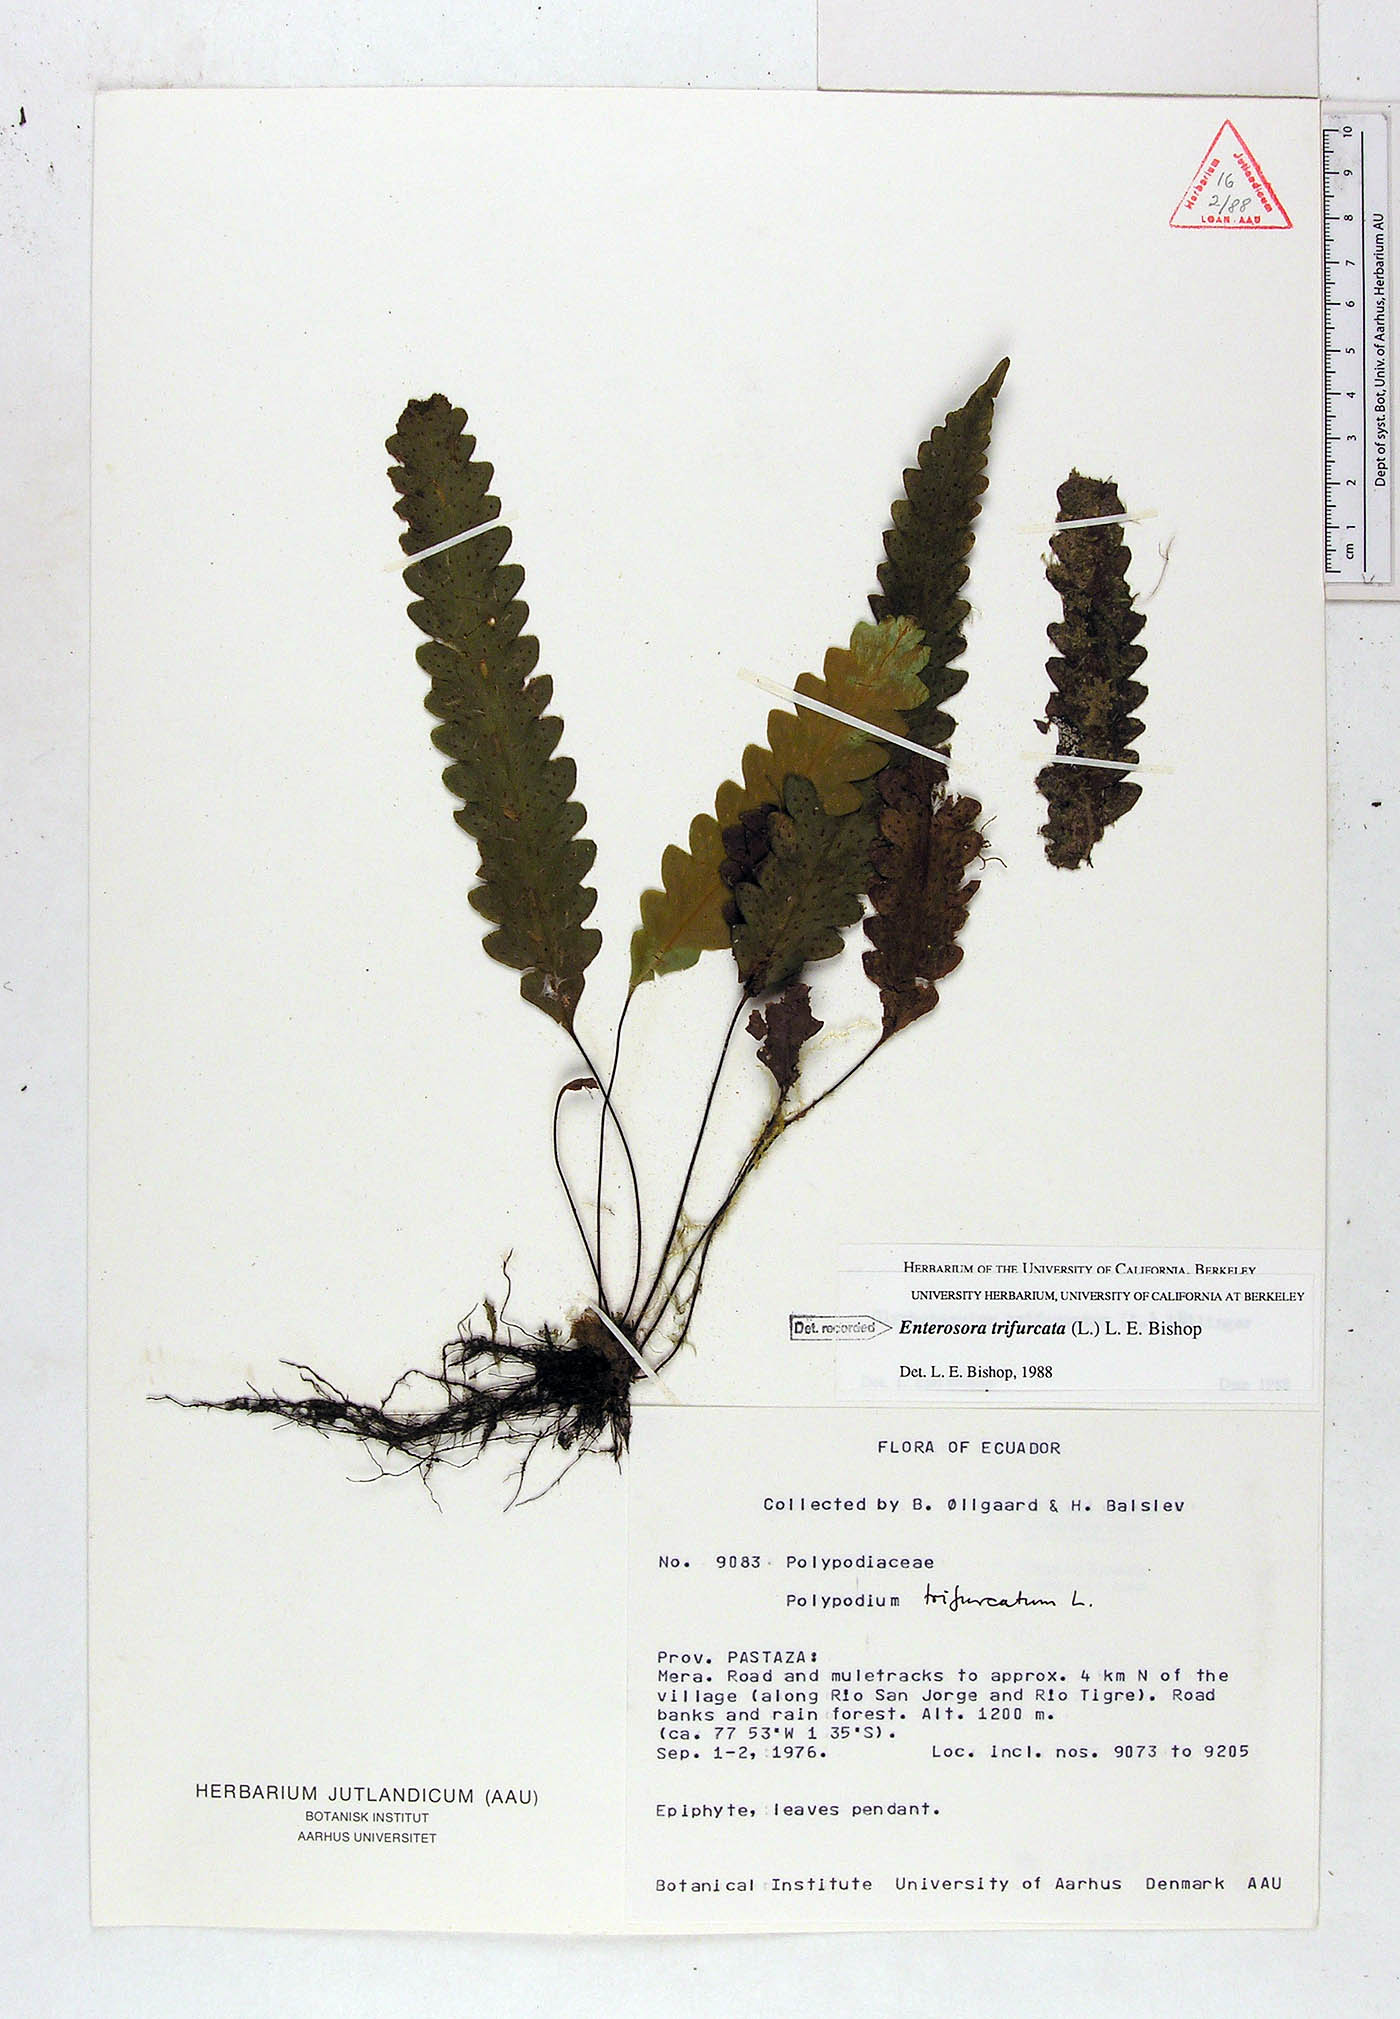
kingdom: Plantae
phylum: Tracheophyta
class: Polypodiopsida
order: Polypodiales
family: Polypodiaceae
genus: Enterosora
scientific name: Enterosora trifurcata
